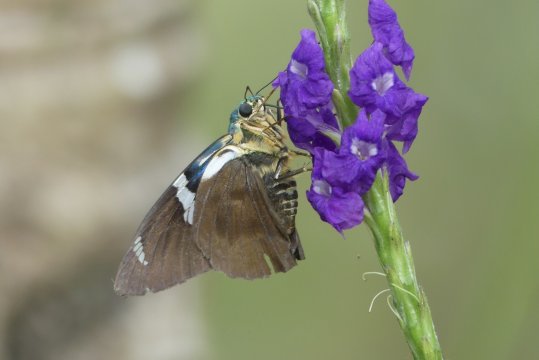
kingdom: Animalia
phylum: Arthropoda
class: Insecta
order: Lepidoptera
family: Hesperiidae
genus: Astraptes
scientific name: Astraptes fulgerator
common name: Two-barred Flasher
